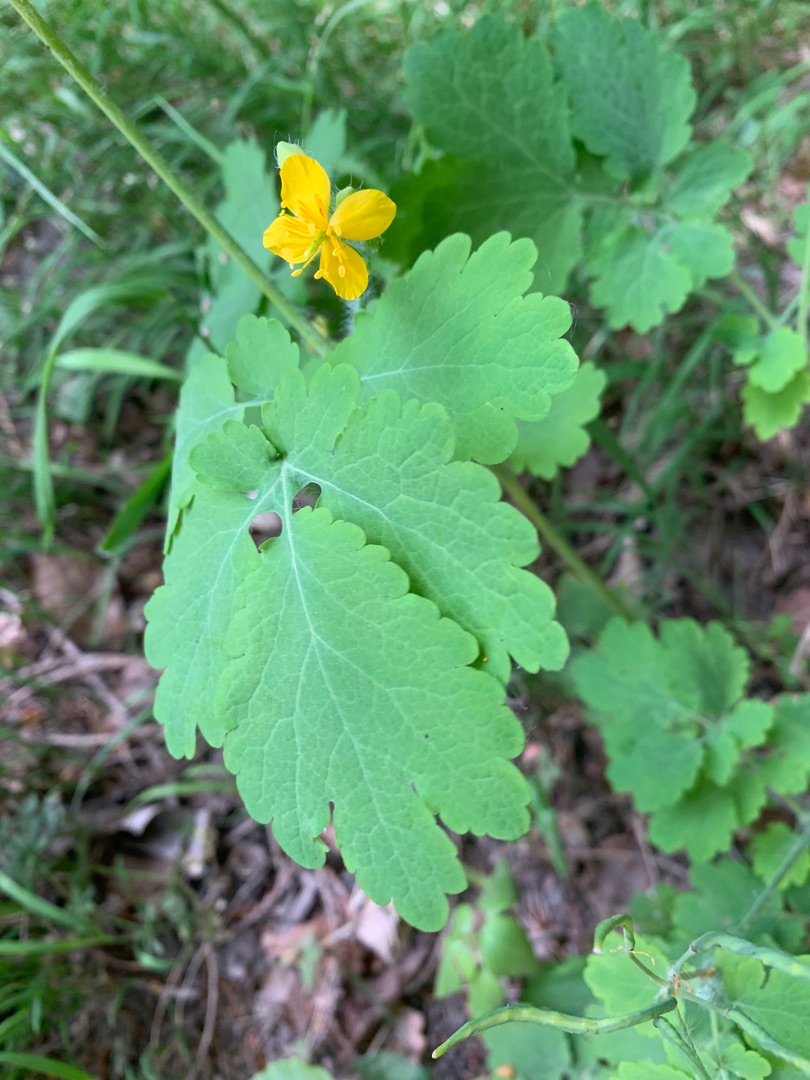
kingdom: Plantae
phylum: Tracheophyta
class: Magnoliopsida
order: Ranunculales
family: Papaveraceae
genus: Chelidonium
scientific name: Chelidonium majus
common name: Svaleurt
